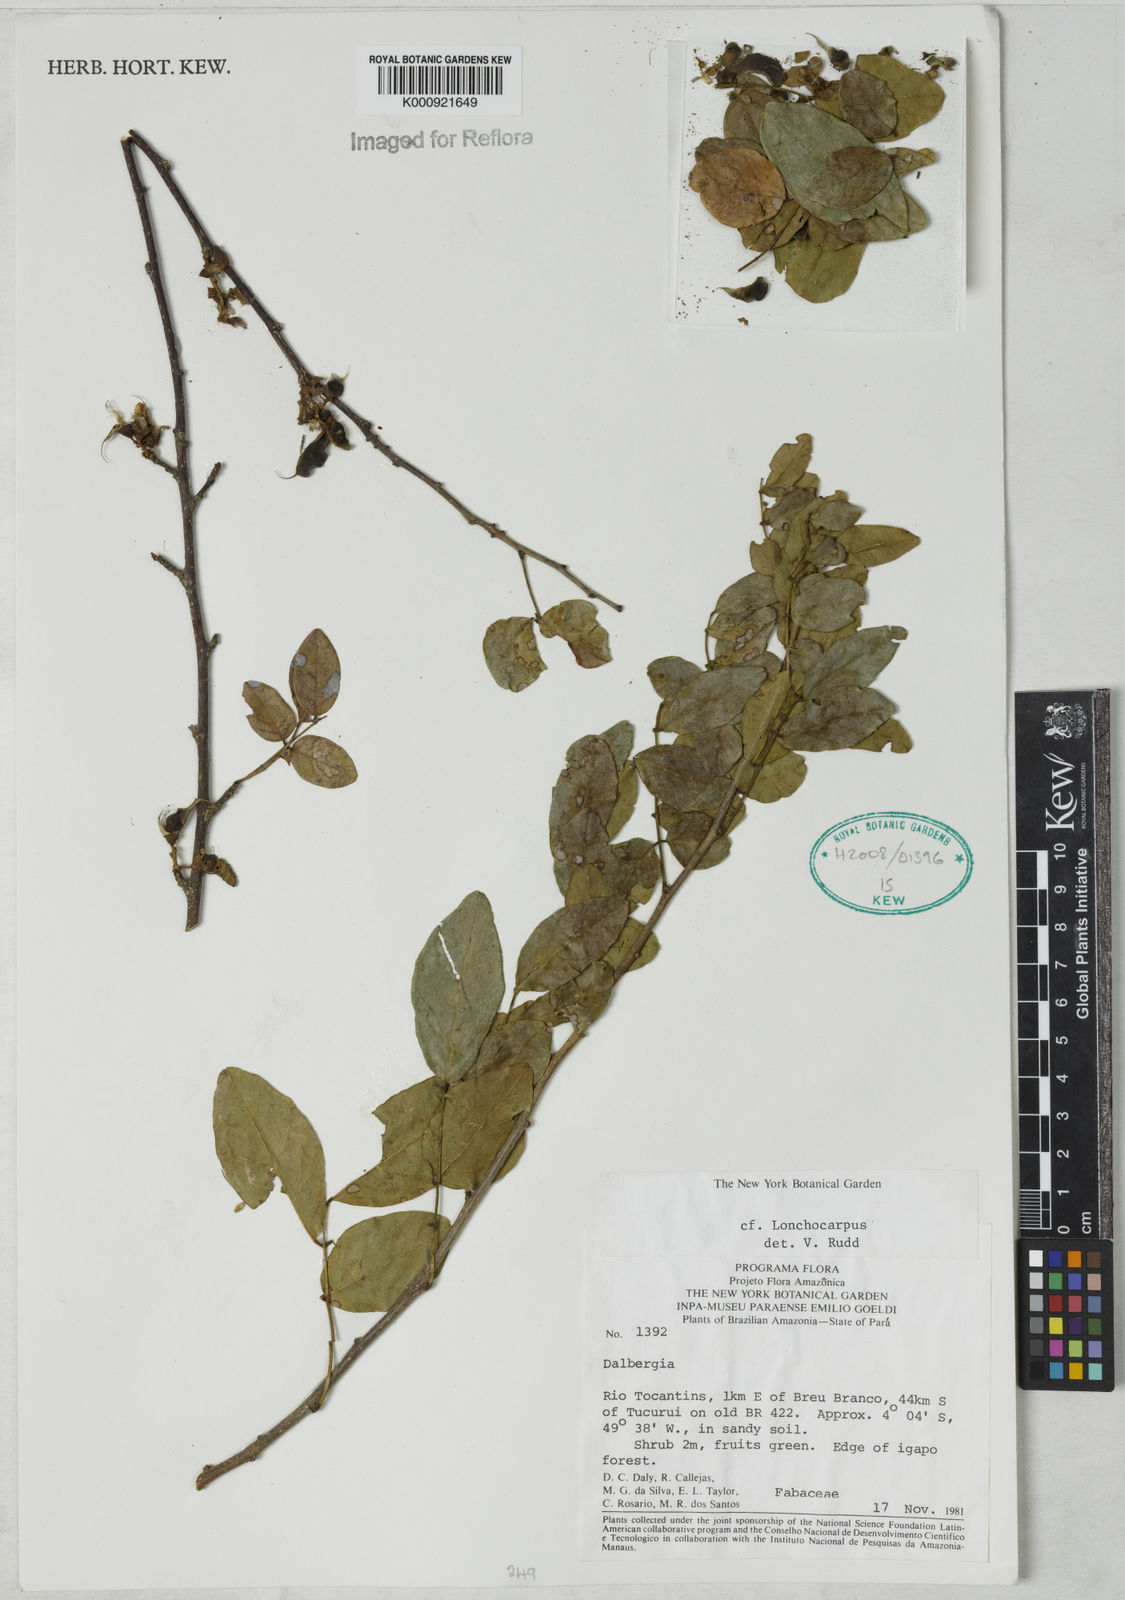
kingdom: Plantae
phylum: Tracheophyta
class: Magnoliopsida
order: Fabales
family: Fabaceae
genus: Muellera
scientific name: Muellera
